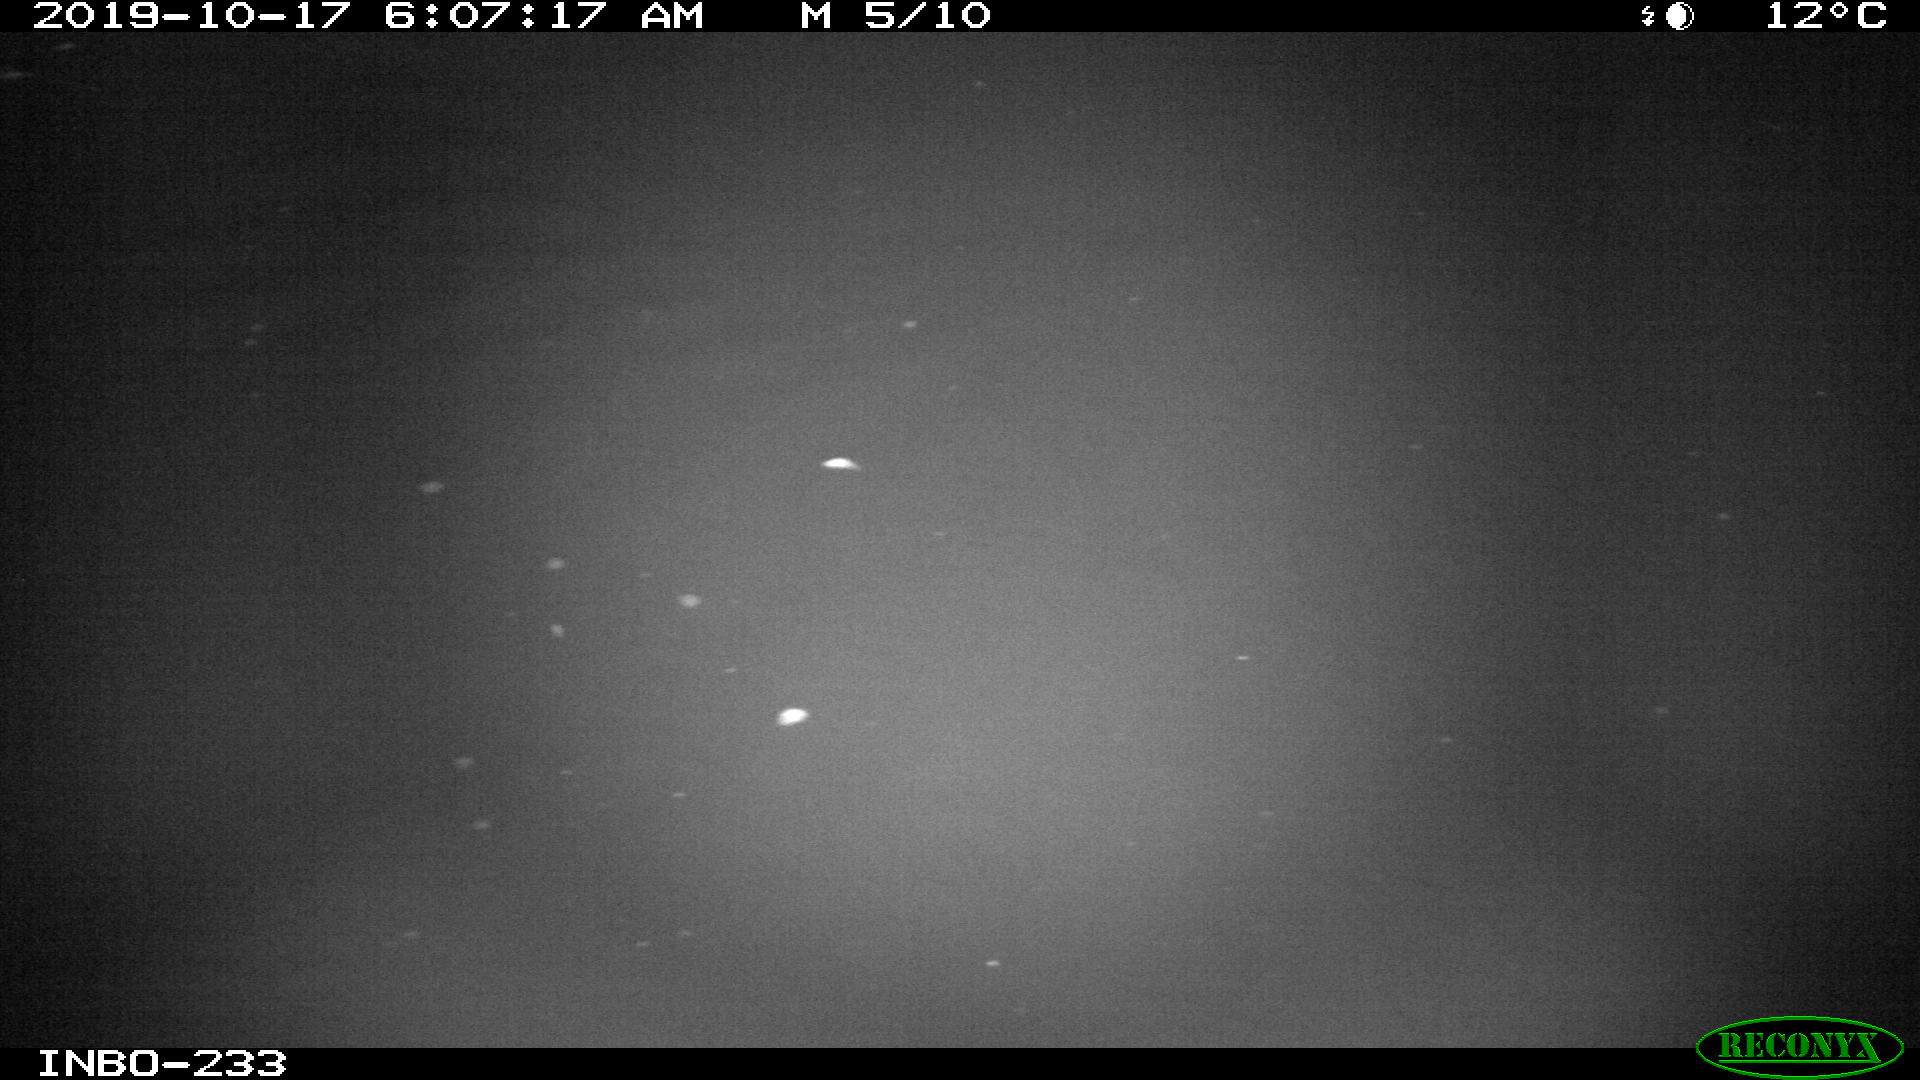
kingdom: Animalia
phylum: Chordata
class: Mammalia
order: Rodentia
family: Muridae
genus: Rattus
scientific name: Rattus norvegicus
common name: Brown rat
